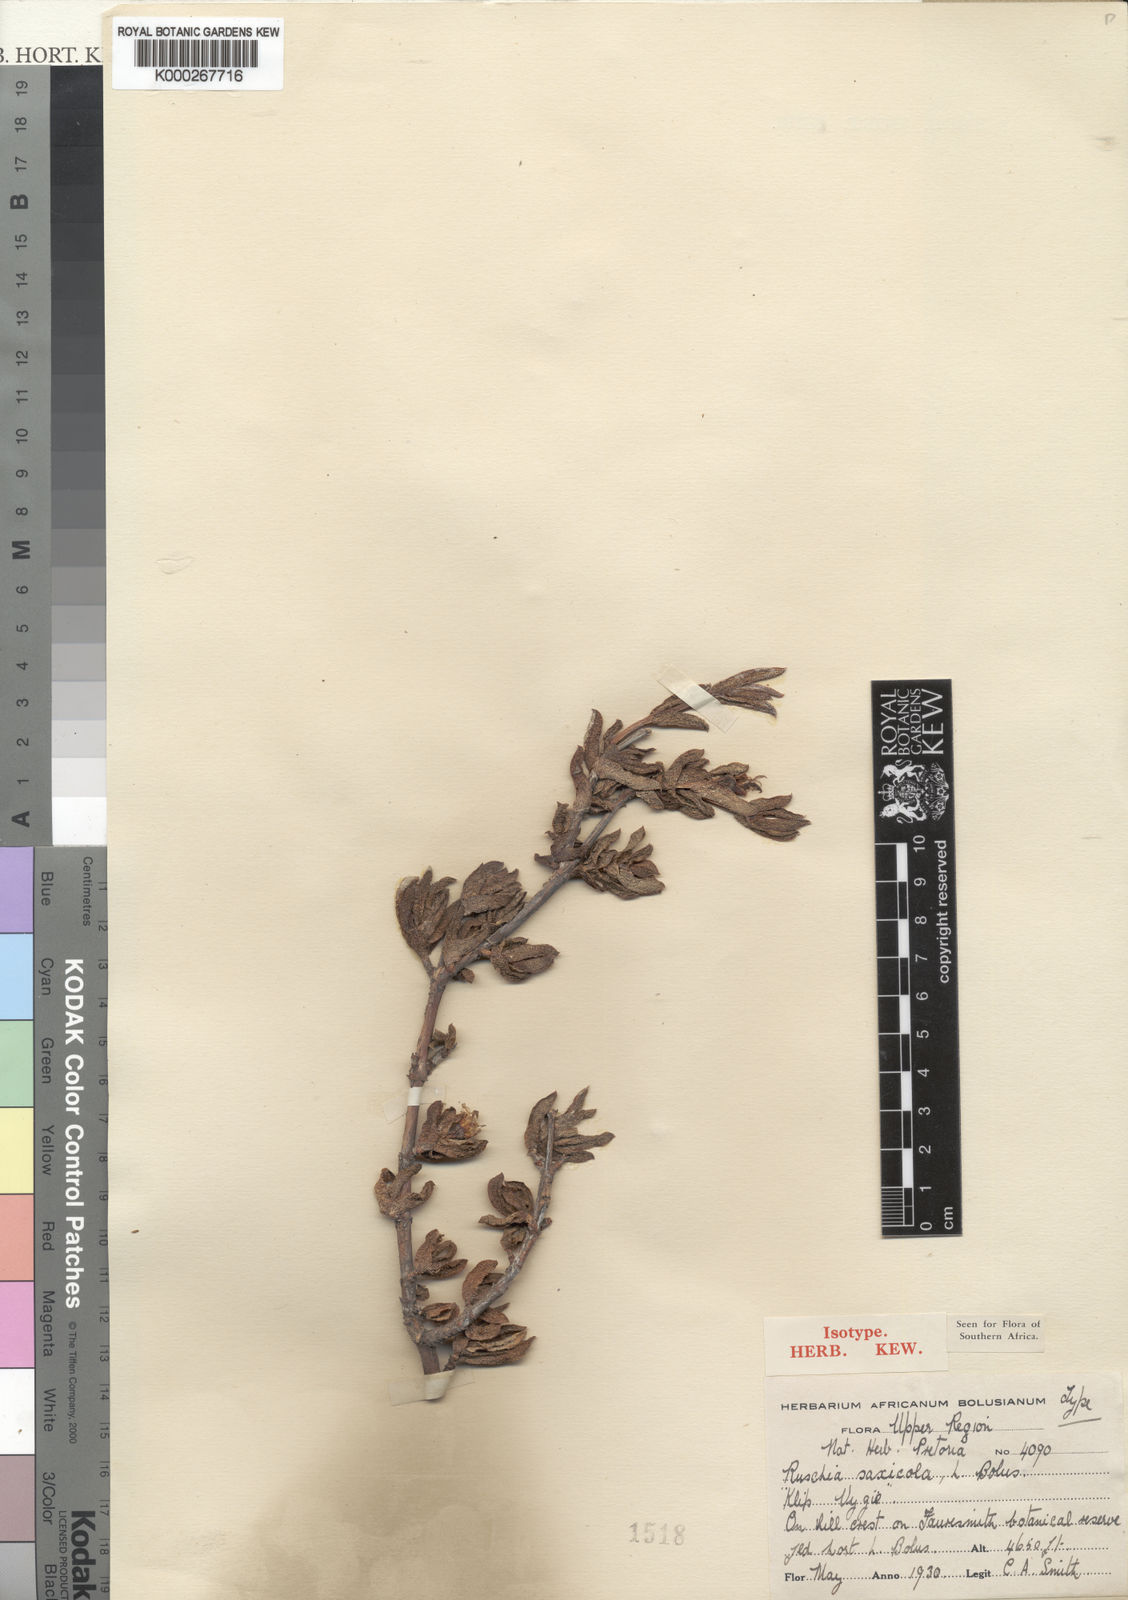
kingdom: Plantae
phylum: Tracheophyta
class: Magnoliopsida
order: Caryophyllales
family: Aizoaceae
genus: Antimima
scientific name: Antimima saxicola
